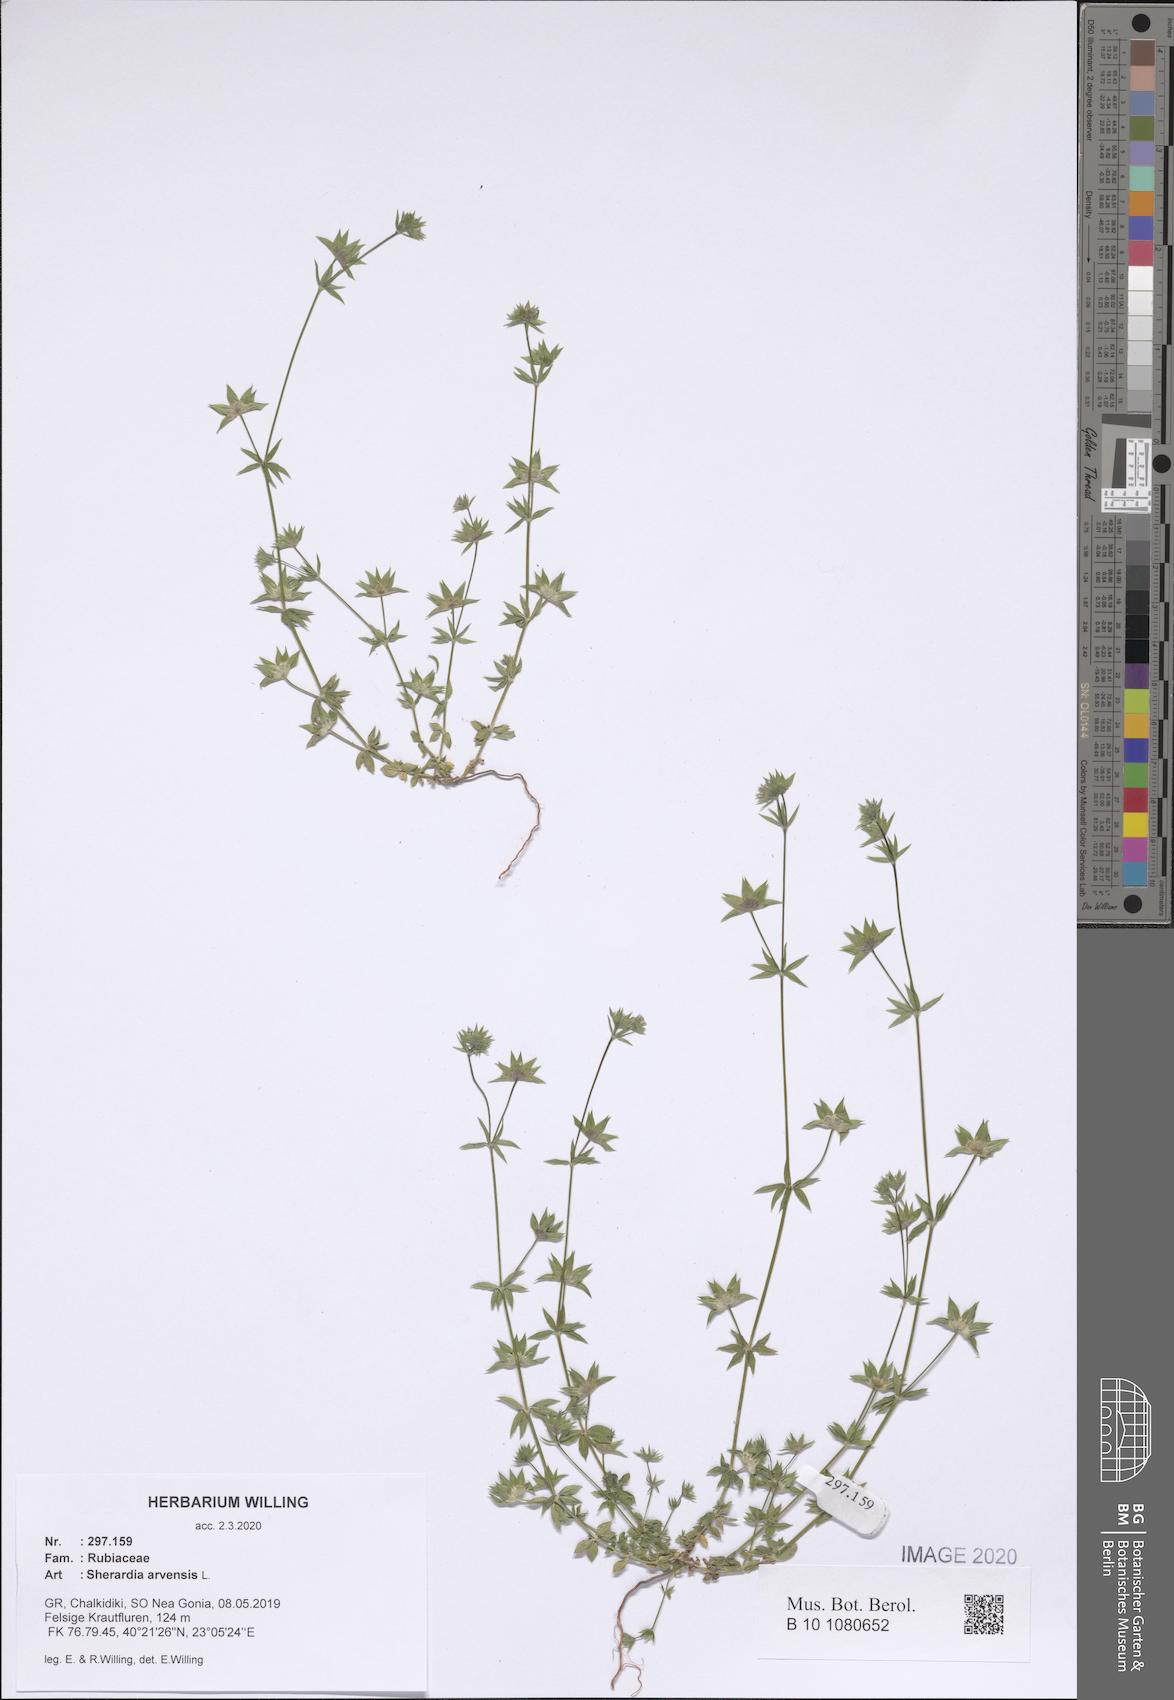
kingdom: Plantae
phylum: Tracheophyta
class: Magnoliopsida
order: Gentianales
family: Rubiaceae
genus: Sherardia
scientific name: Sherardia arvensis
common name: Field madder
